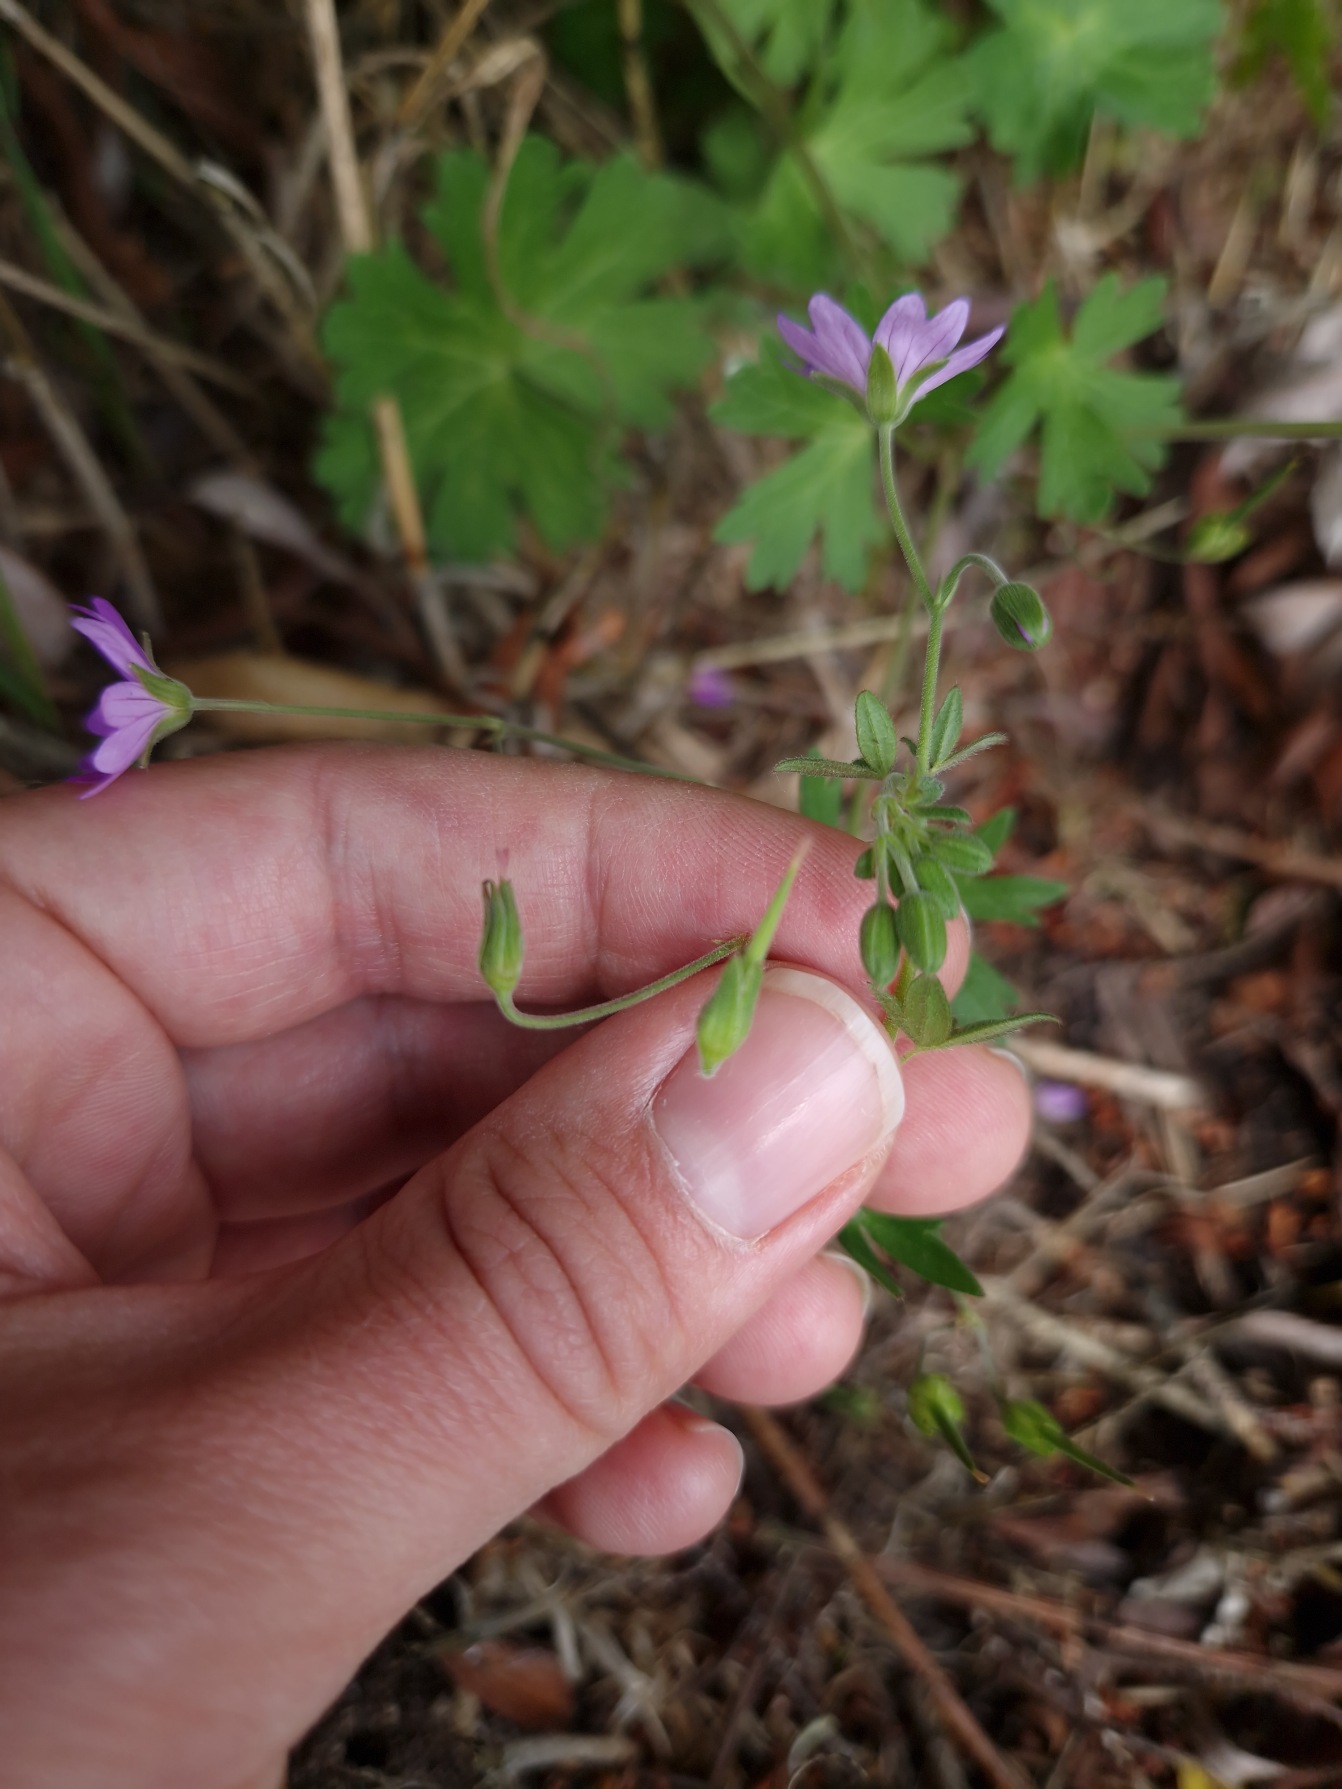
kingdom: Plantae
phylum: Tracheophyta
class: Magnoliopsida
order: Geraniales
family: Geraniaceae
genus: Geranium
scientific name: Geranium pyrenaicum
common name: Pyrenæisk storkenæb
